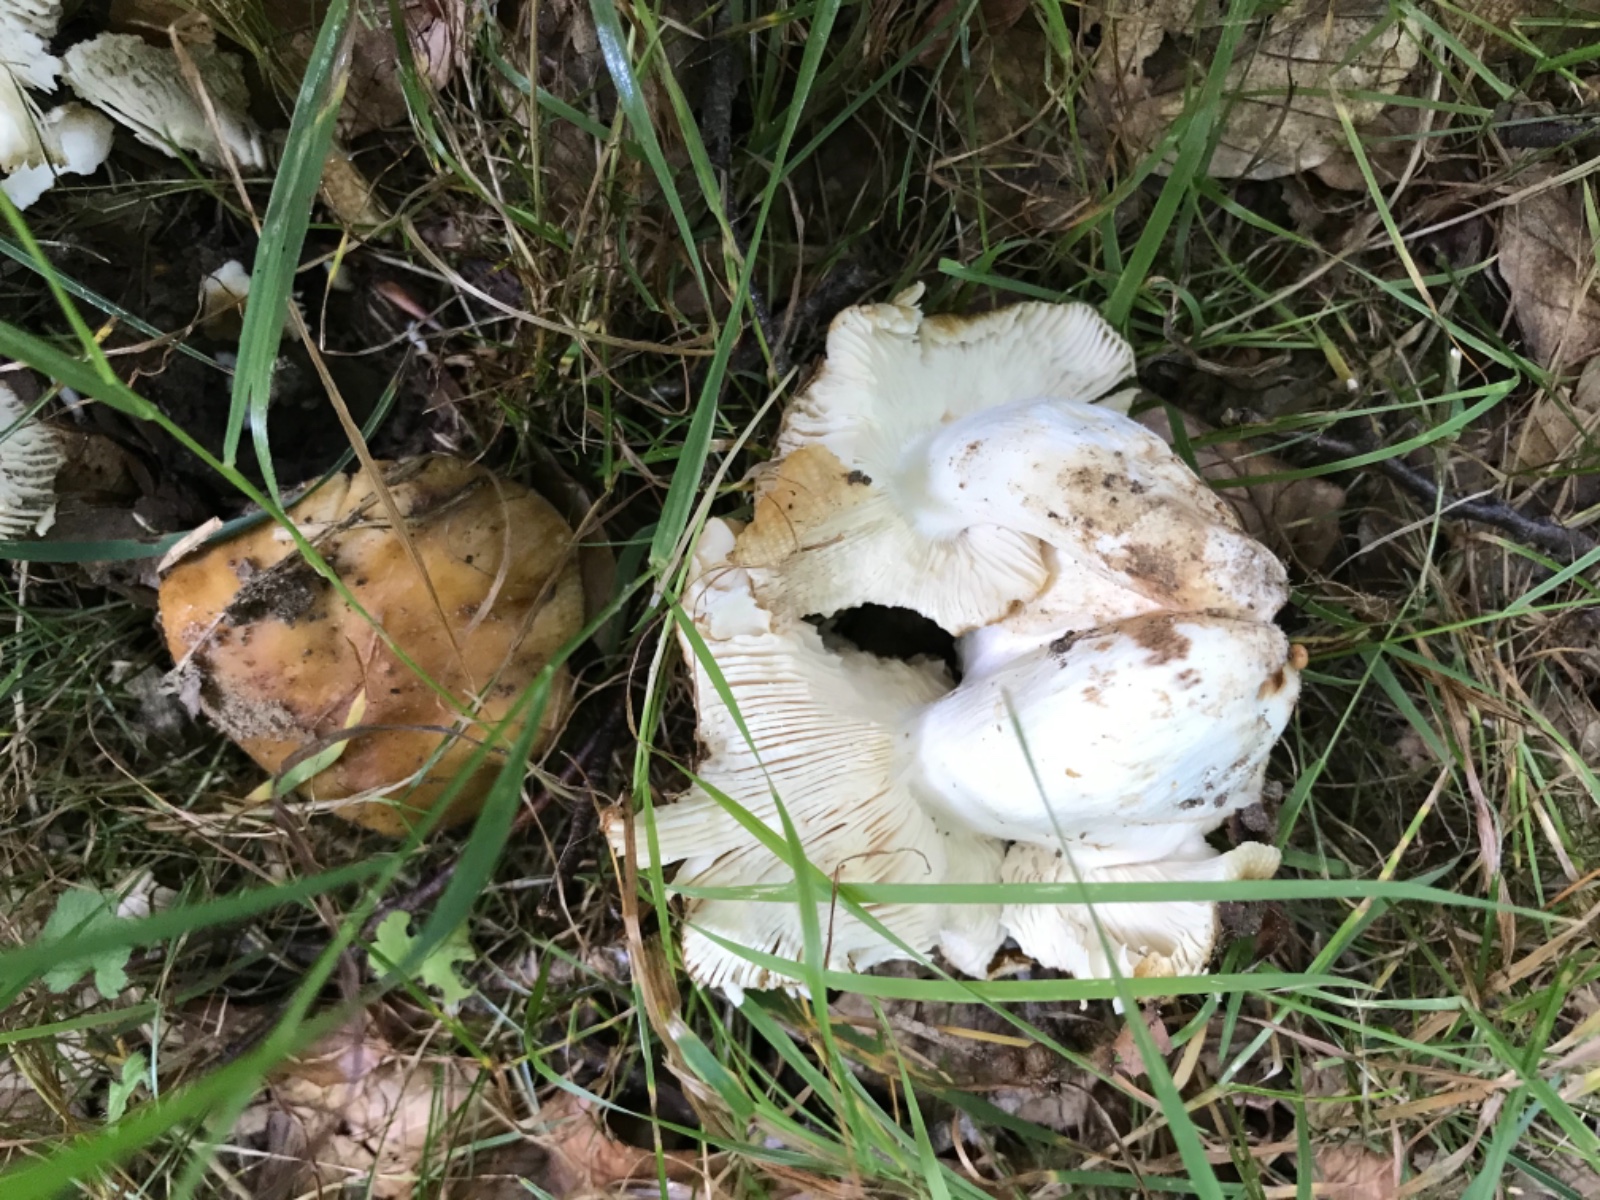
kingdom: Fungi
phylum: Basidiomycota
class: Agaricomycetes
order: Russulales
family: Russulaceae
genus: Russula
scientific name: Russula recondita
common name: mild kam-skørhat
